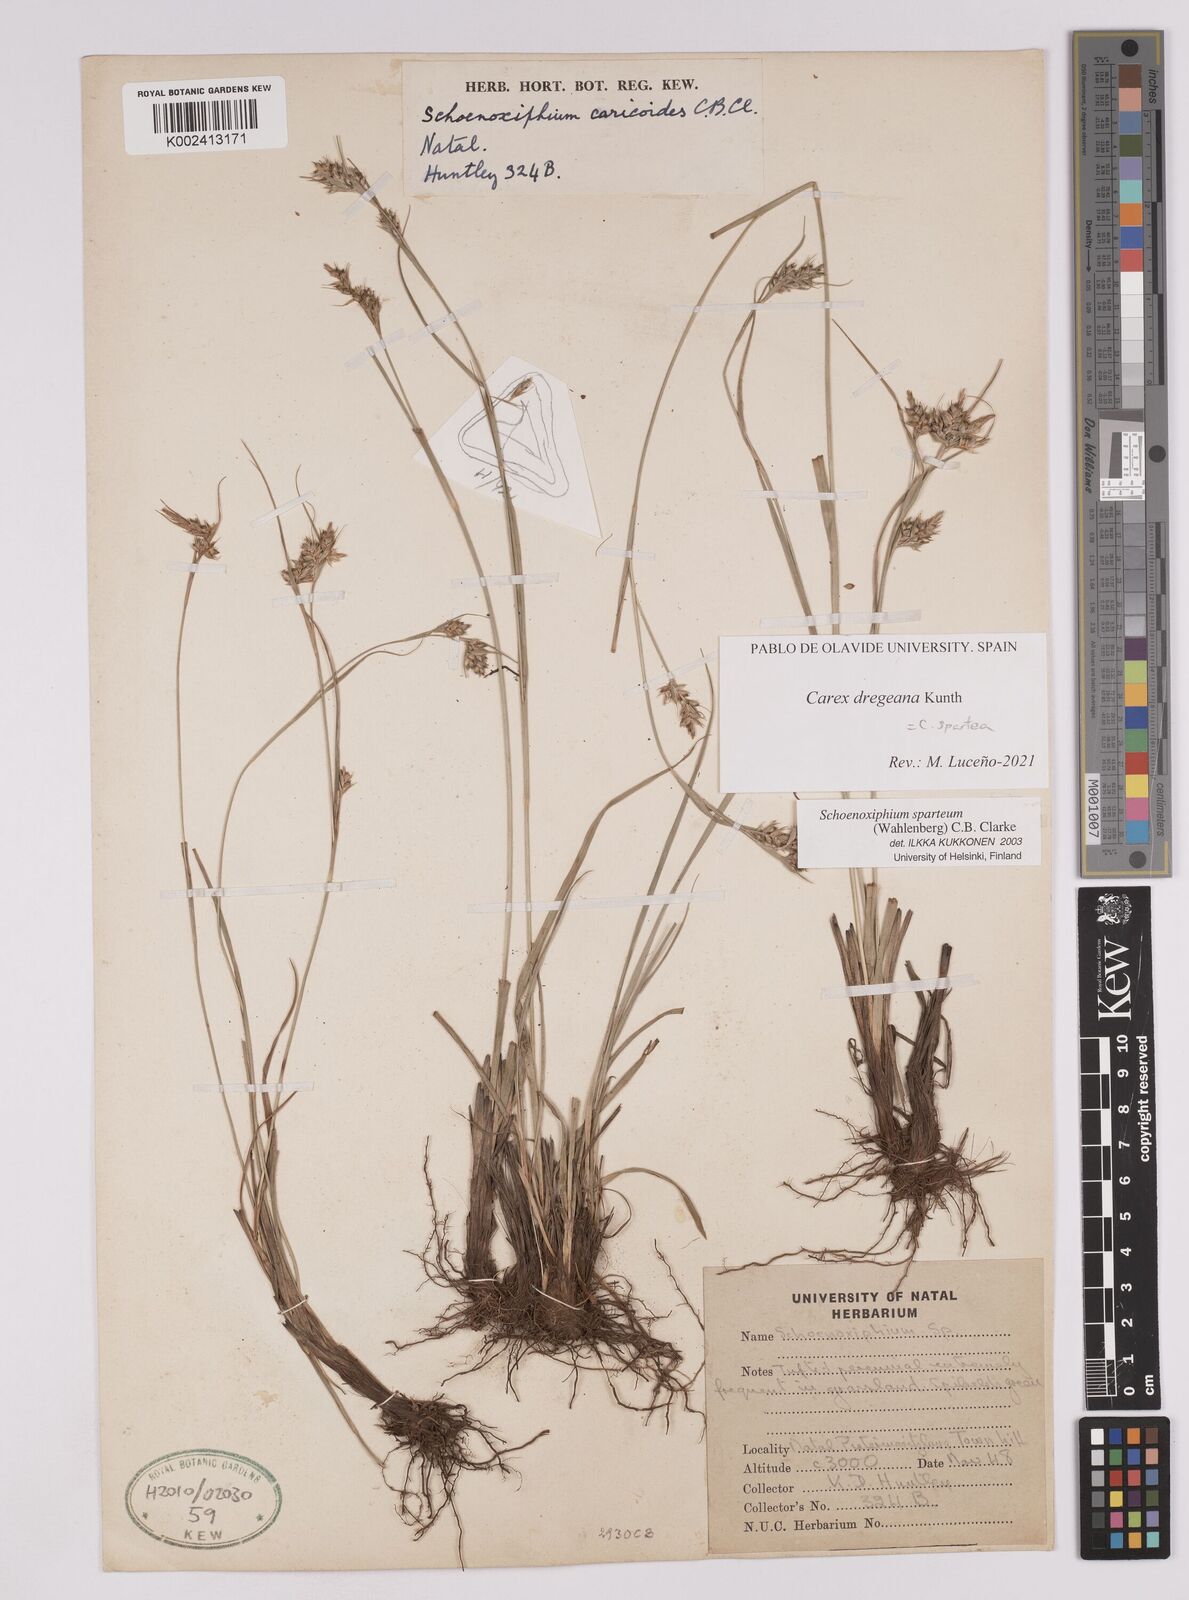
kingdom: Plantae
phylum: Tracheophyta
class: Liliopsida
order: Poales
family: Cyperaceae
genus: Carex
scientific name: Carex spartea
